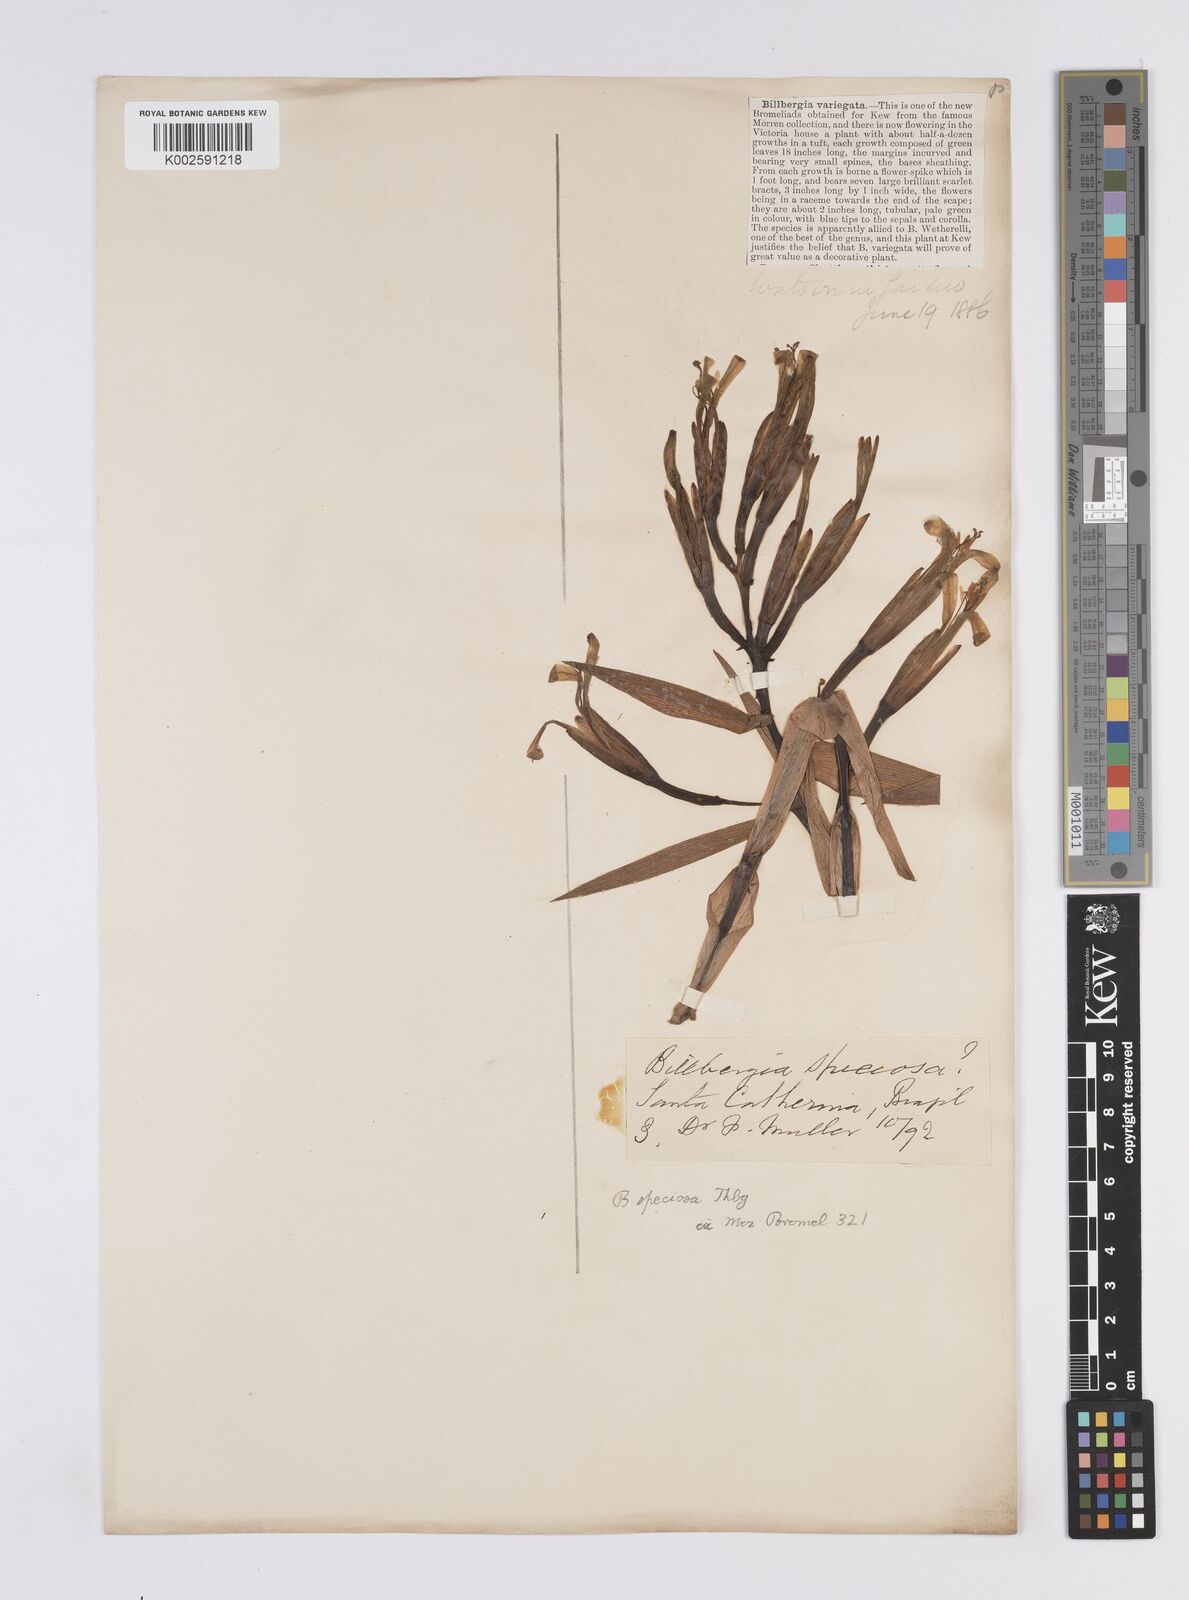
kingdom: Plantae
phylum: Tracheophyta
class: Liliopsida
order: Poales
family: Bromeliaceae
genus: Billbergia
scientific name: Billbergia amoena
